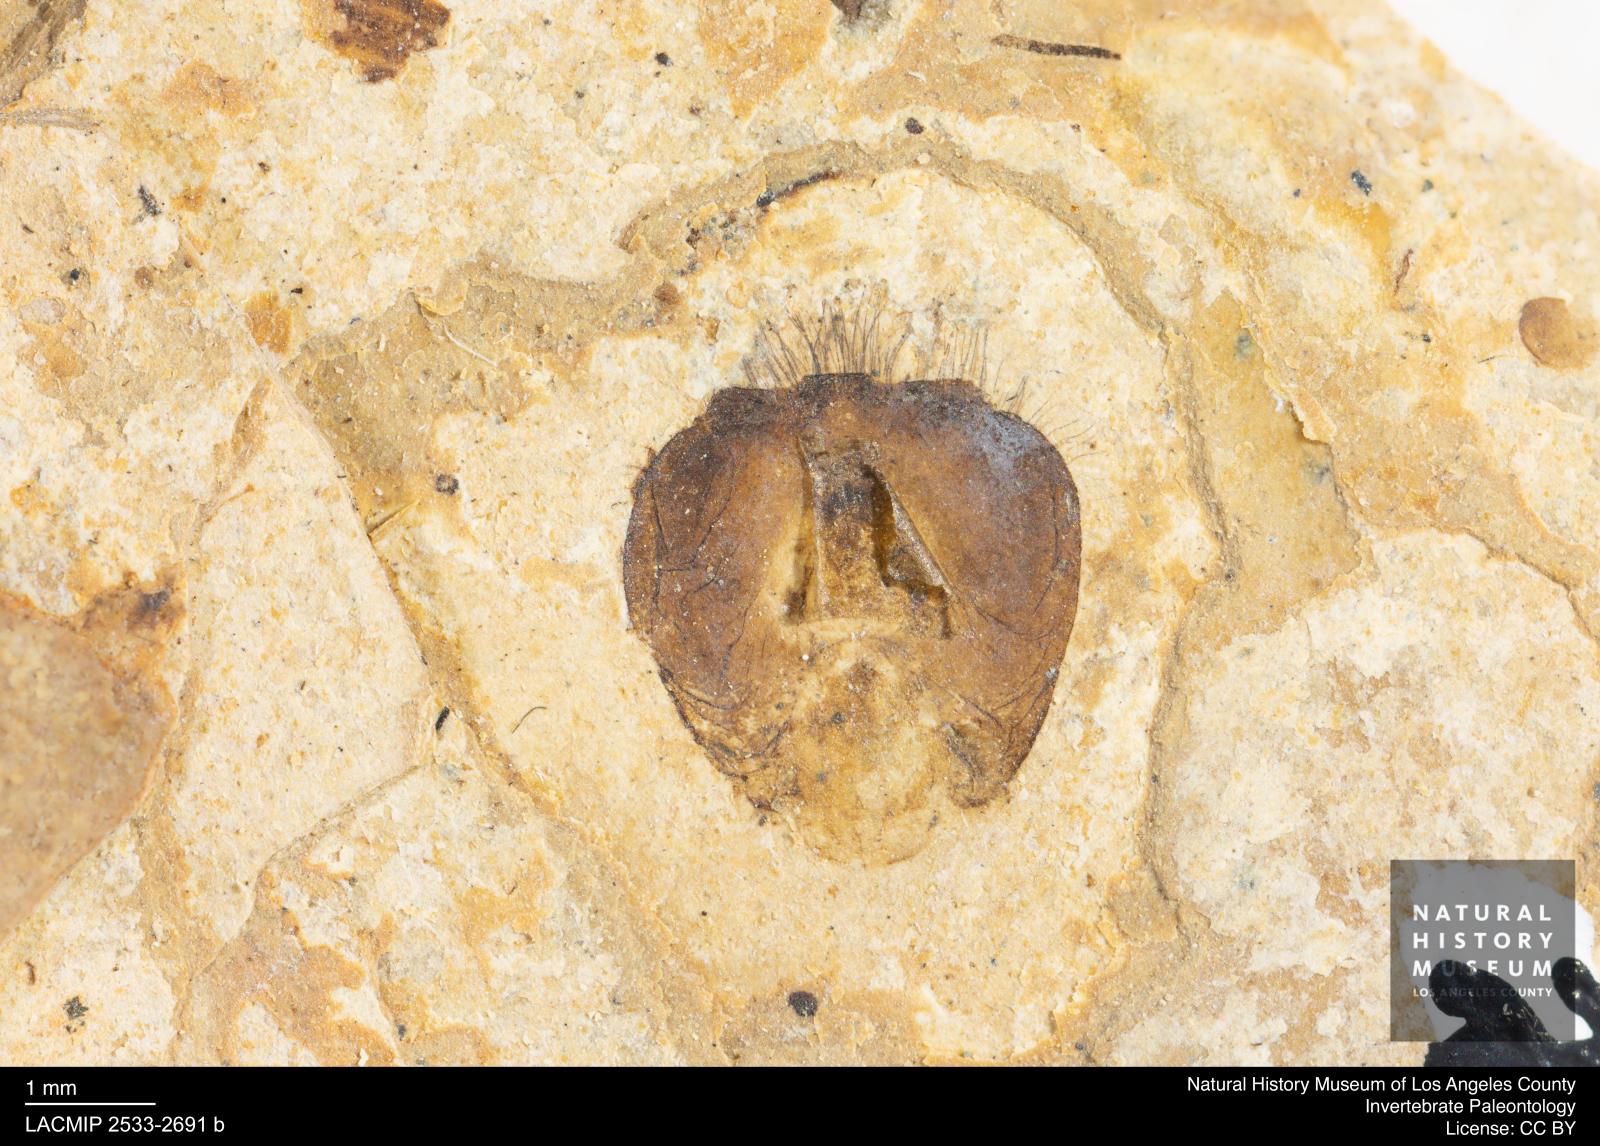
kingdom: Animalia
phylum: Arthropoda
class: Insecta
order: Hymenoptera
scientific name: Hymenoptera
